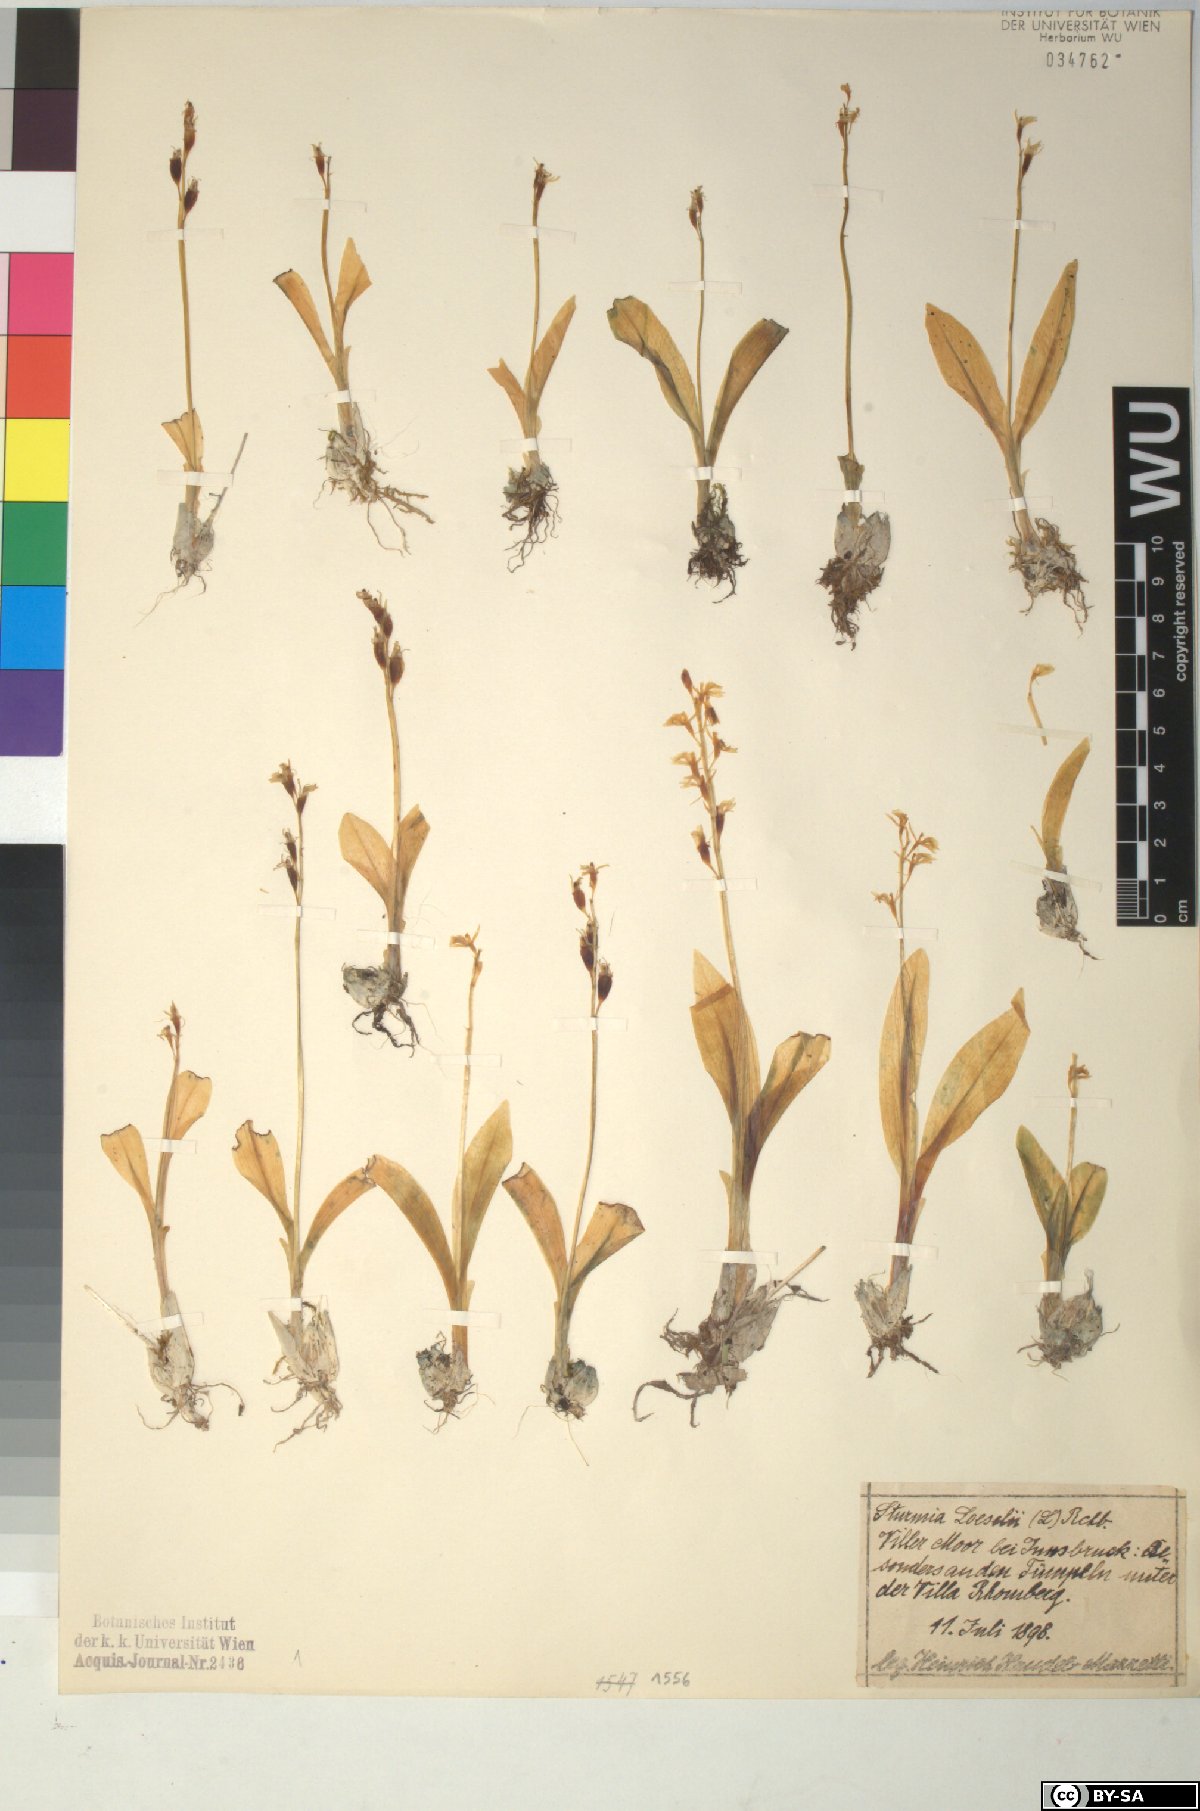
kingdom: Animalia
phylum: Arthropoda
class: Insecta
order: Coleoptera
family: Curculionidae
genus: Liparis
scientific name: Liparis loeselii
